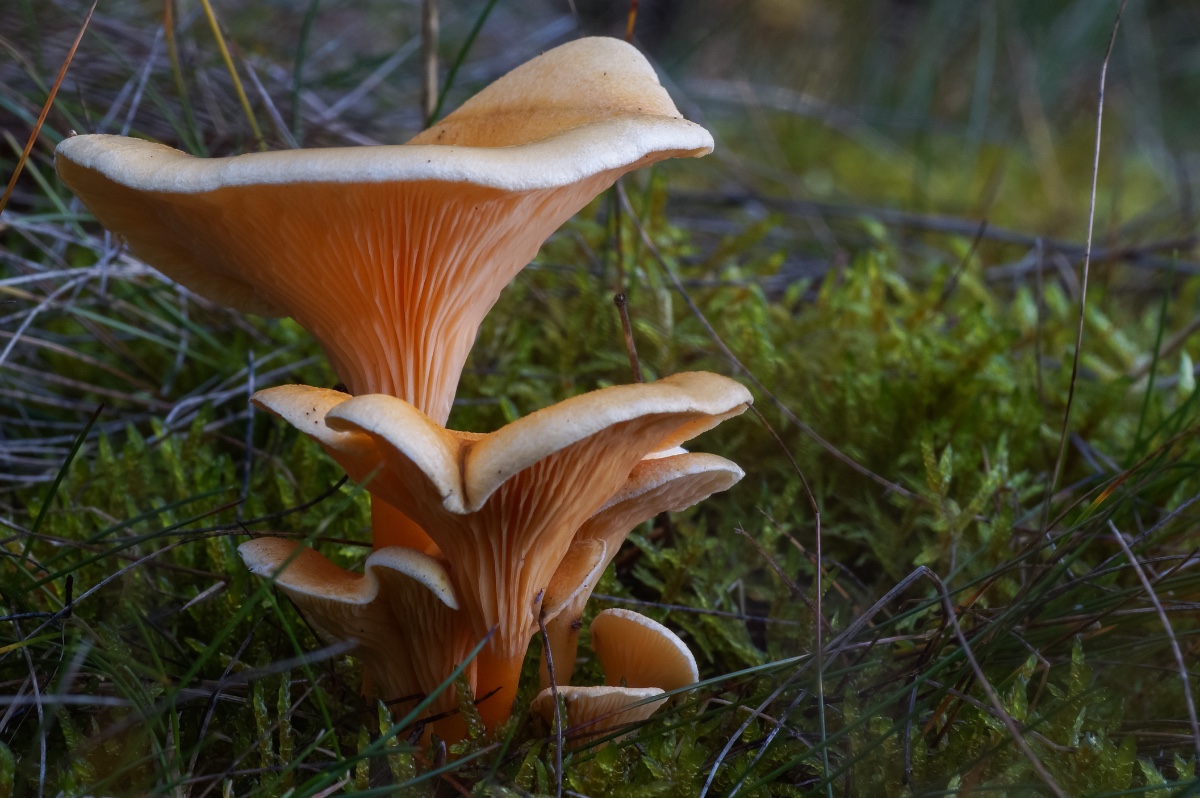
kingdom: Fungi
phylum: Basidiomycota
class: Agaricomycetes
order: Boletales
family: Hygrophoropsidaceae
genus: Hygrophoropsis
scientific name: Hygrophoropsis aurantiaca
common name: almindelig orangekantarel
